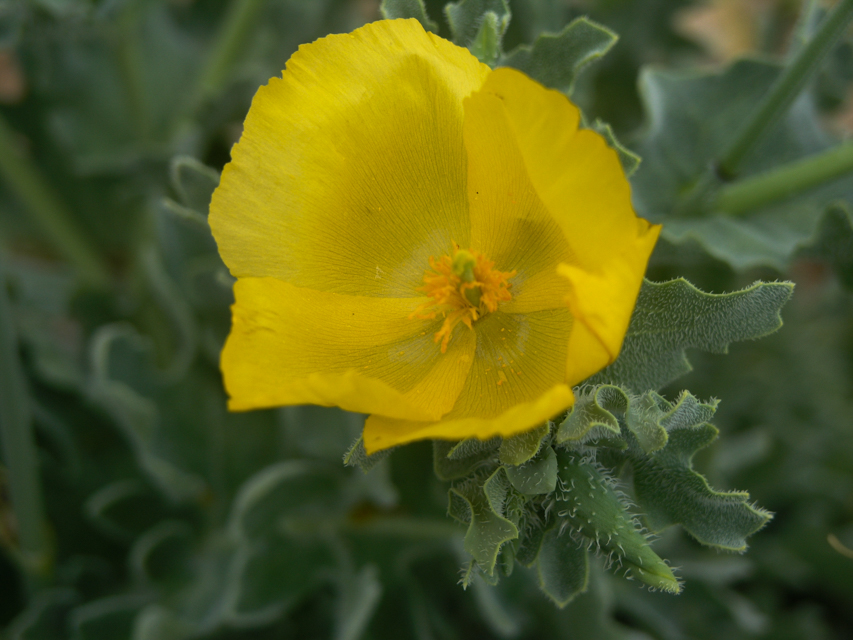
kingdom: Plantae
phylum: Tracheophyta
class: Magnoliopsida
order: Ranunculales
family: Papaveraceae
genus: Glaucium
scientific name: Glaucium flavum
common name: Yellow horned-poppy
